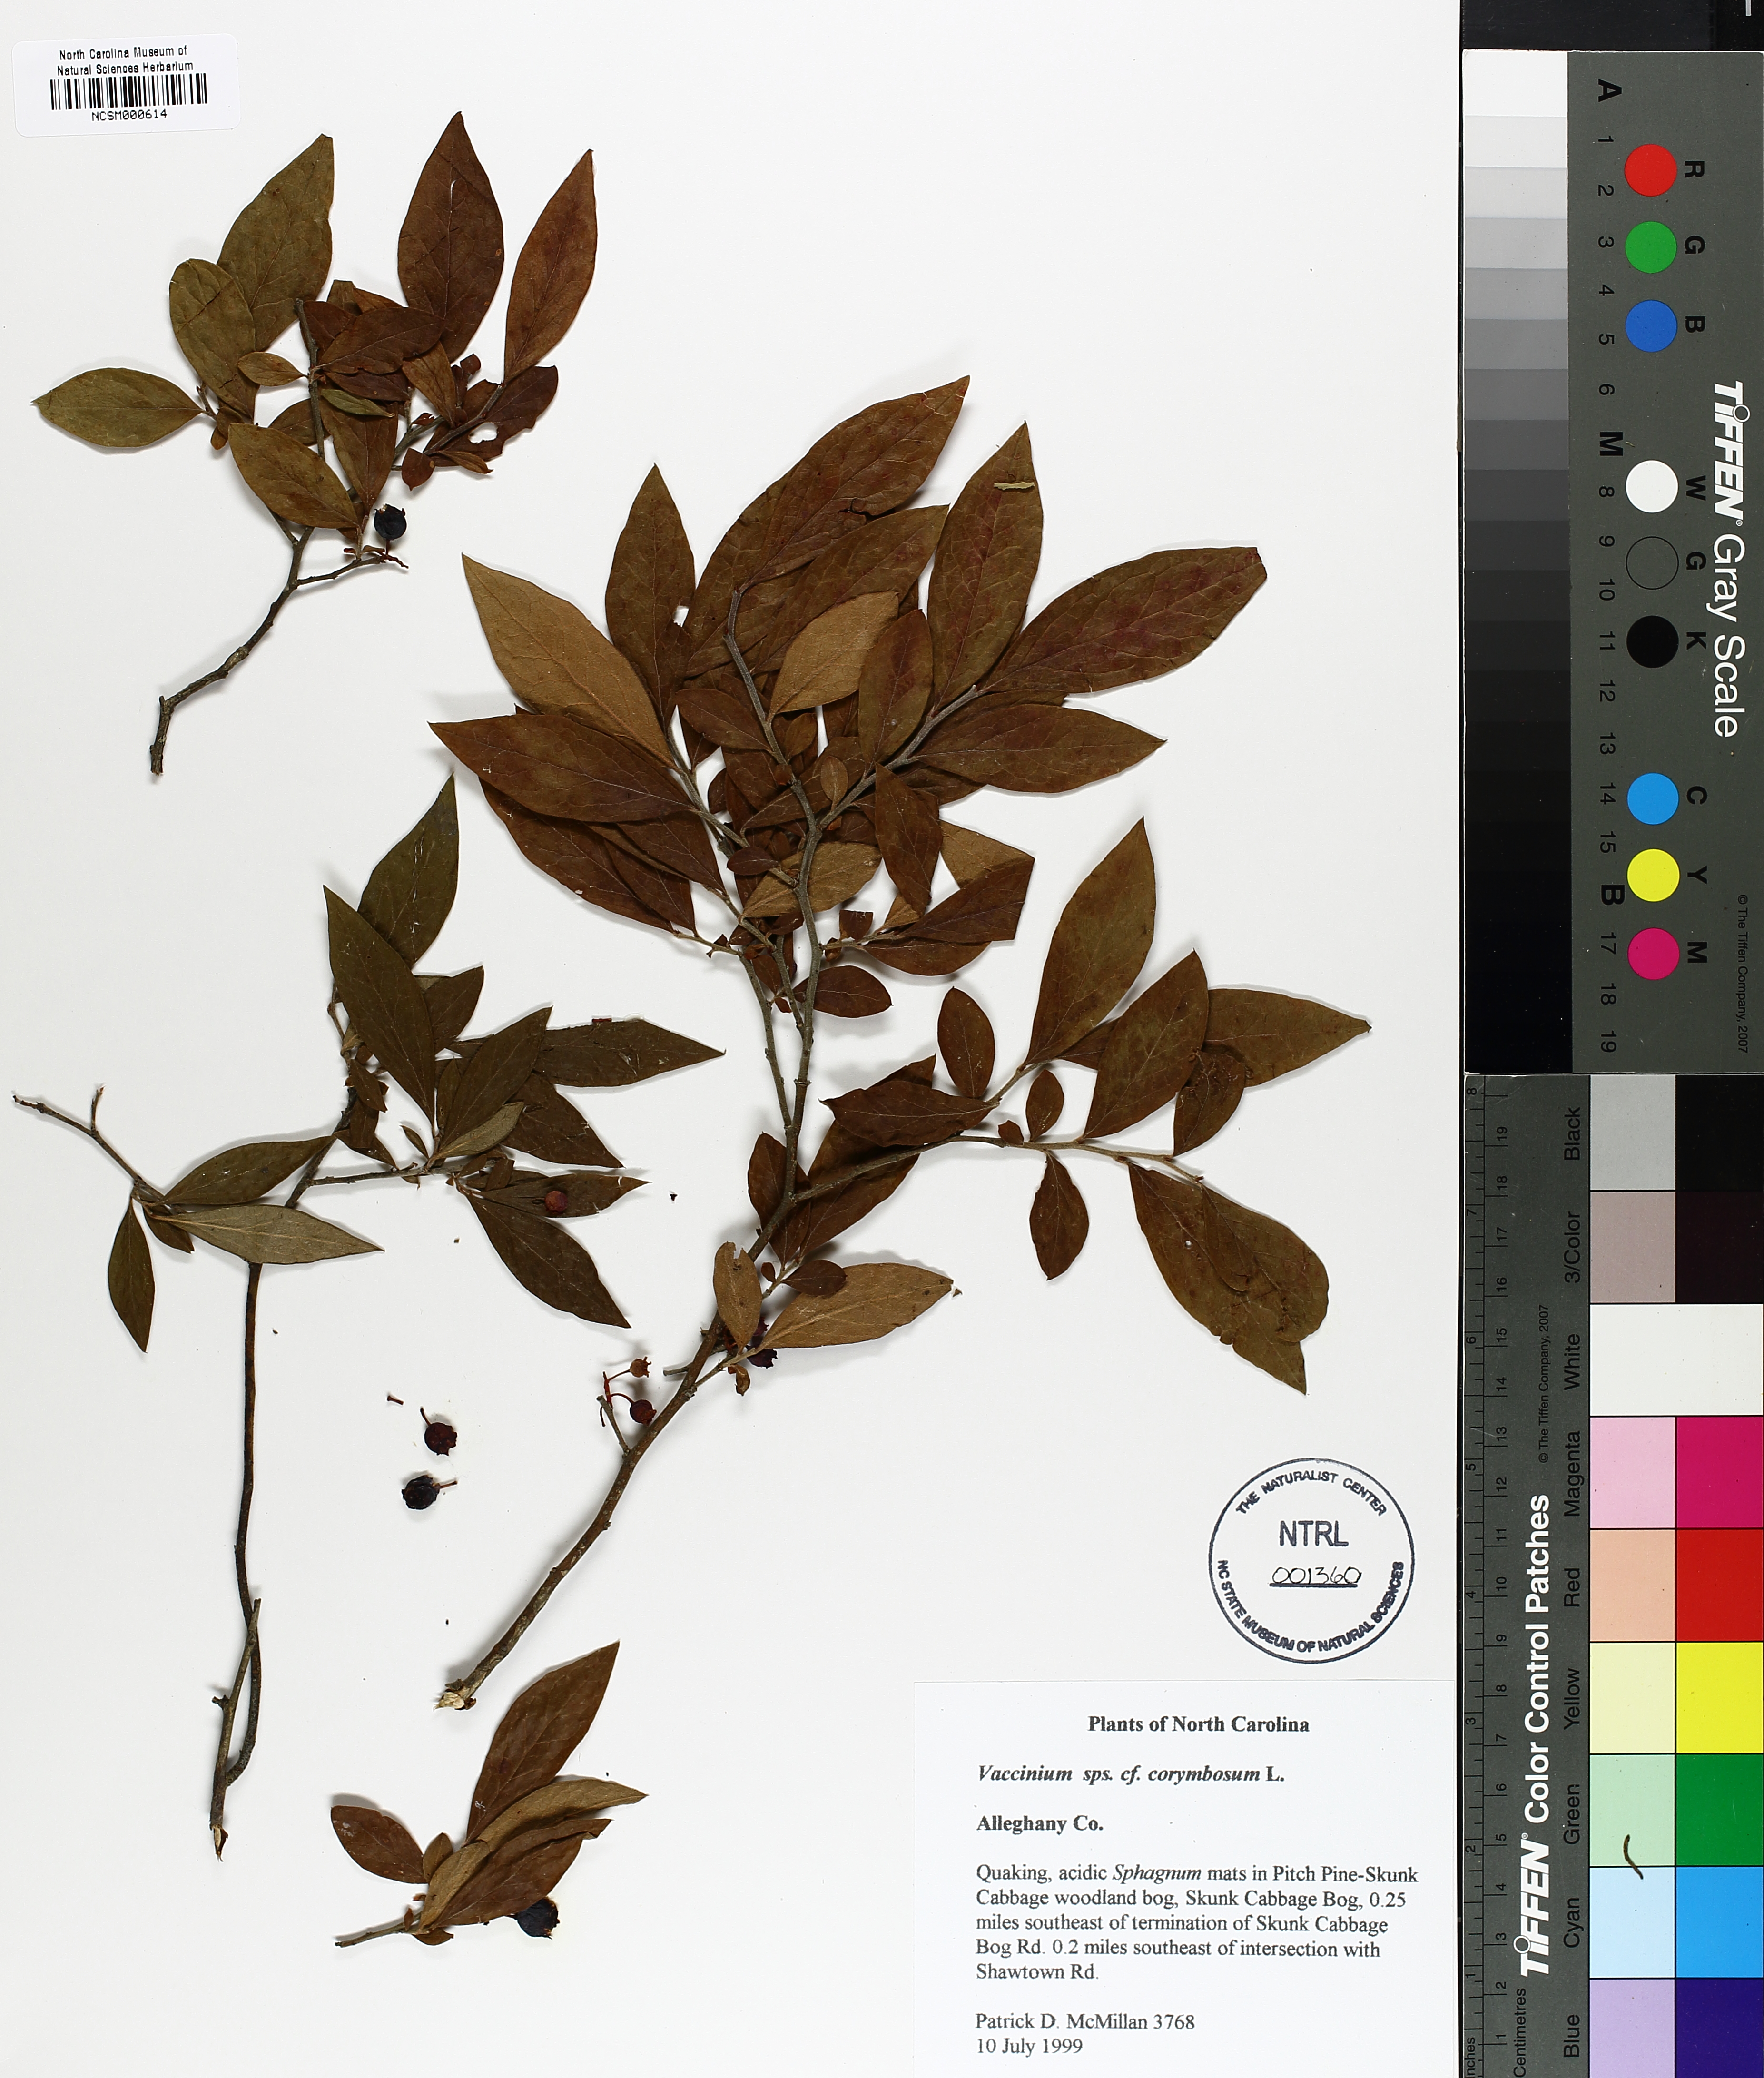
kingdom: Plantae
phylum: Tracheophyta
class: Magnoliopsida
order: Ericales
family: Ericaceae
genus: Vaccinium
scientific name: Vaccinium corymbosum
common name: Blueberry
